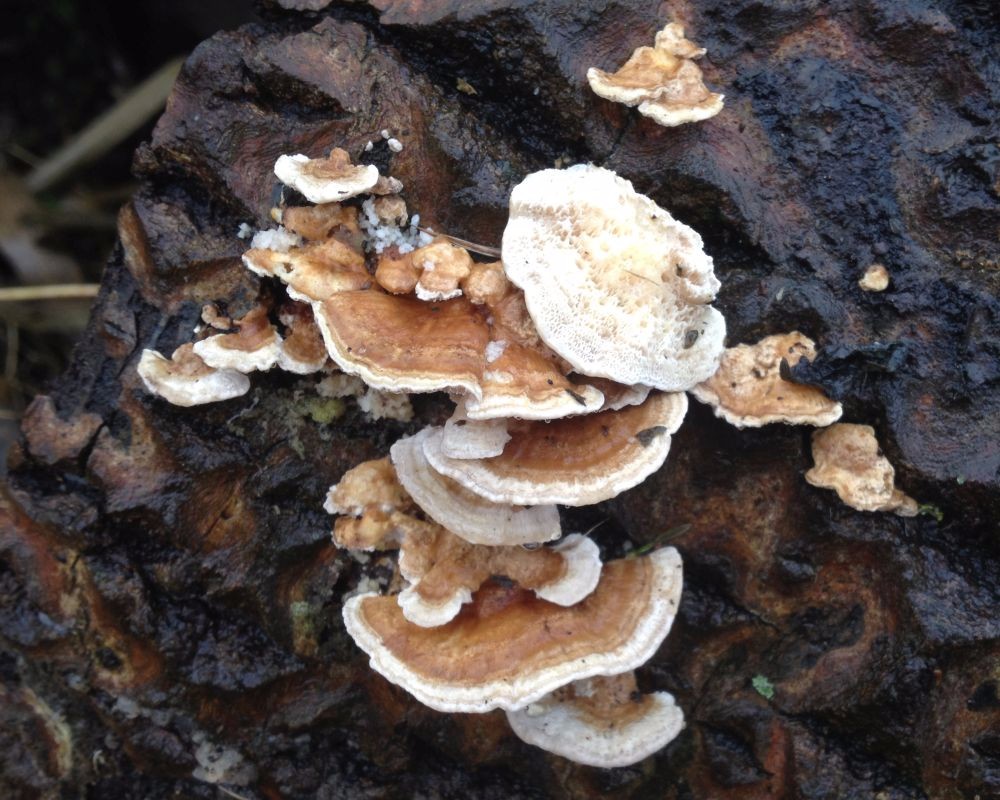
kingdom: Fungi
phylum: Basidiomycota
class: Agaricomycetes
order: Polyporales
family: Polyporaceae
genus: Trametes
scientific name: Trametes ochracea
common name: bæltet læderporesvamp
